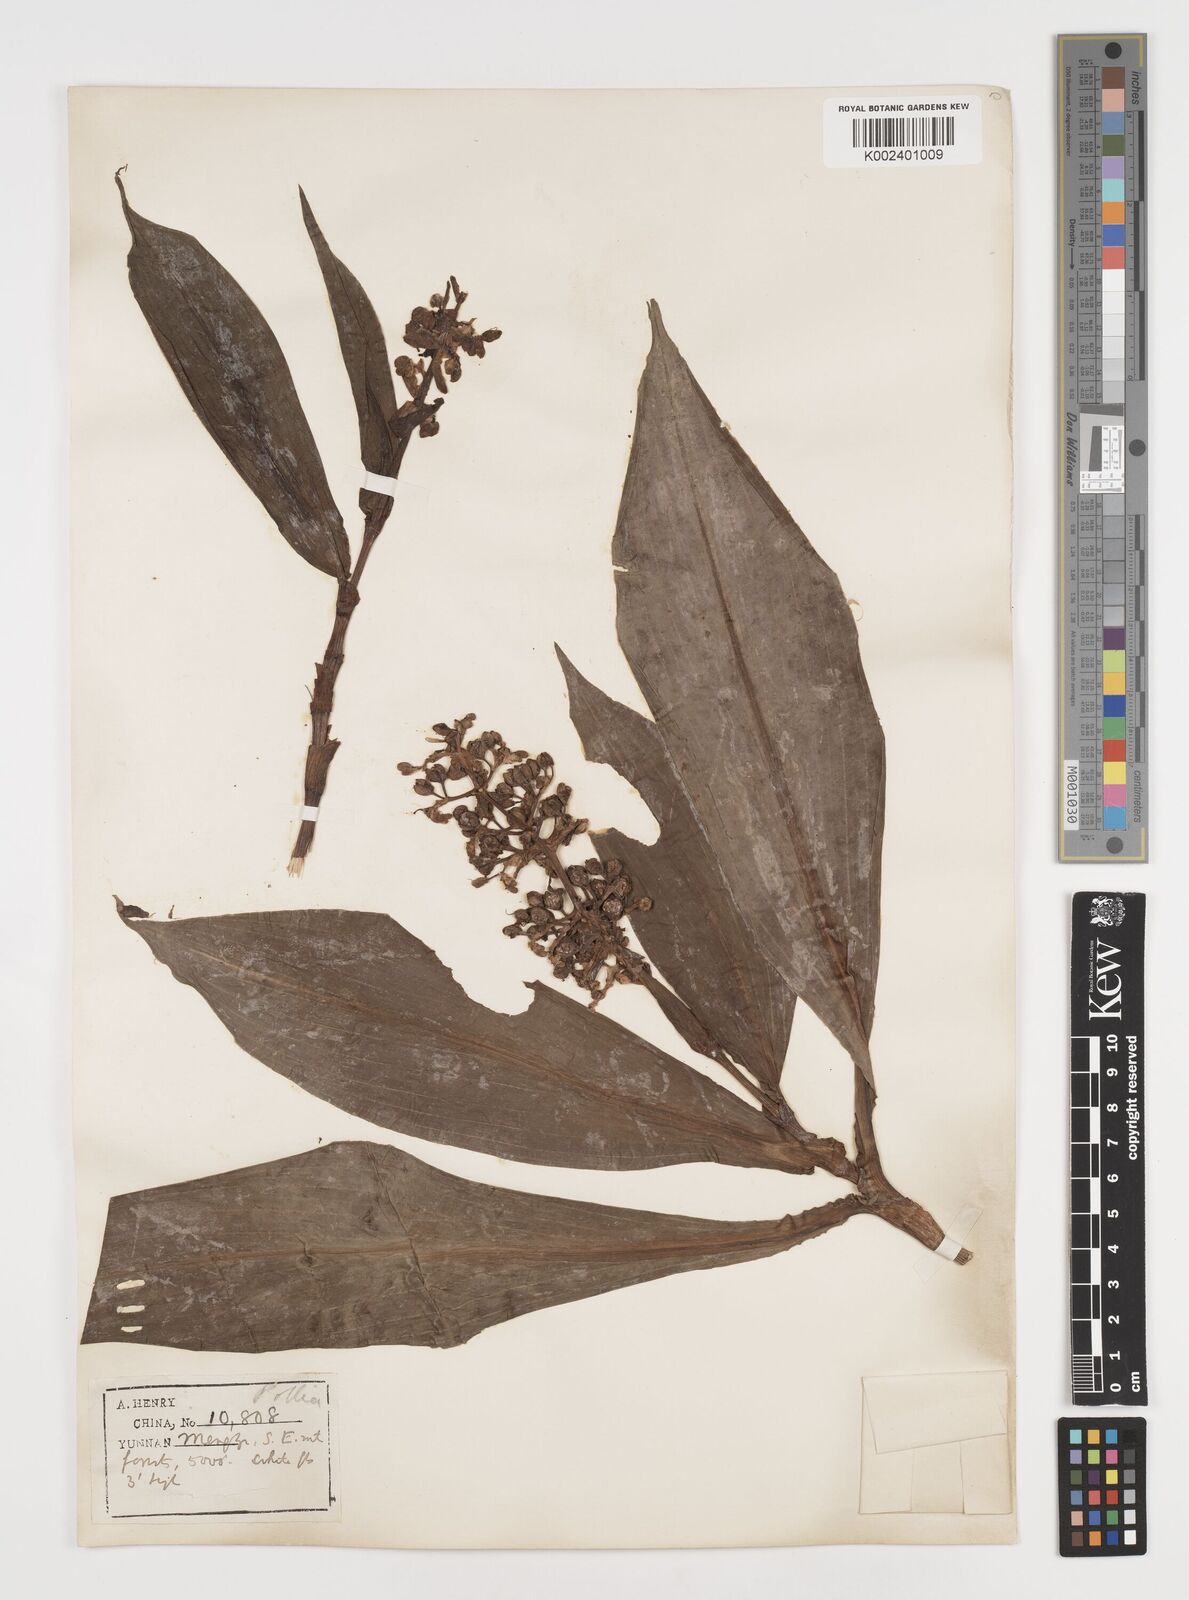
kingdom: Plantae
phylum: Tracheophyta
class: Liliopsida
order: Commelinales
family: Commelinaceae
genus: Pollia
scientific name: Pollia thyrsiflora
